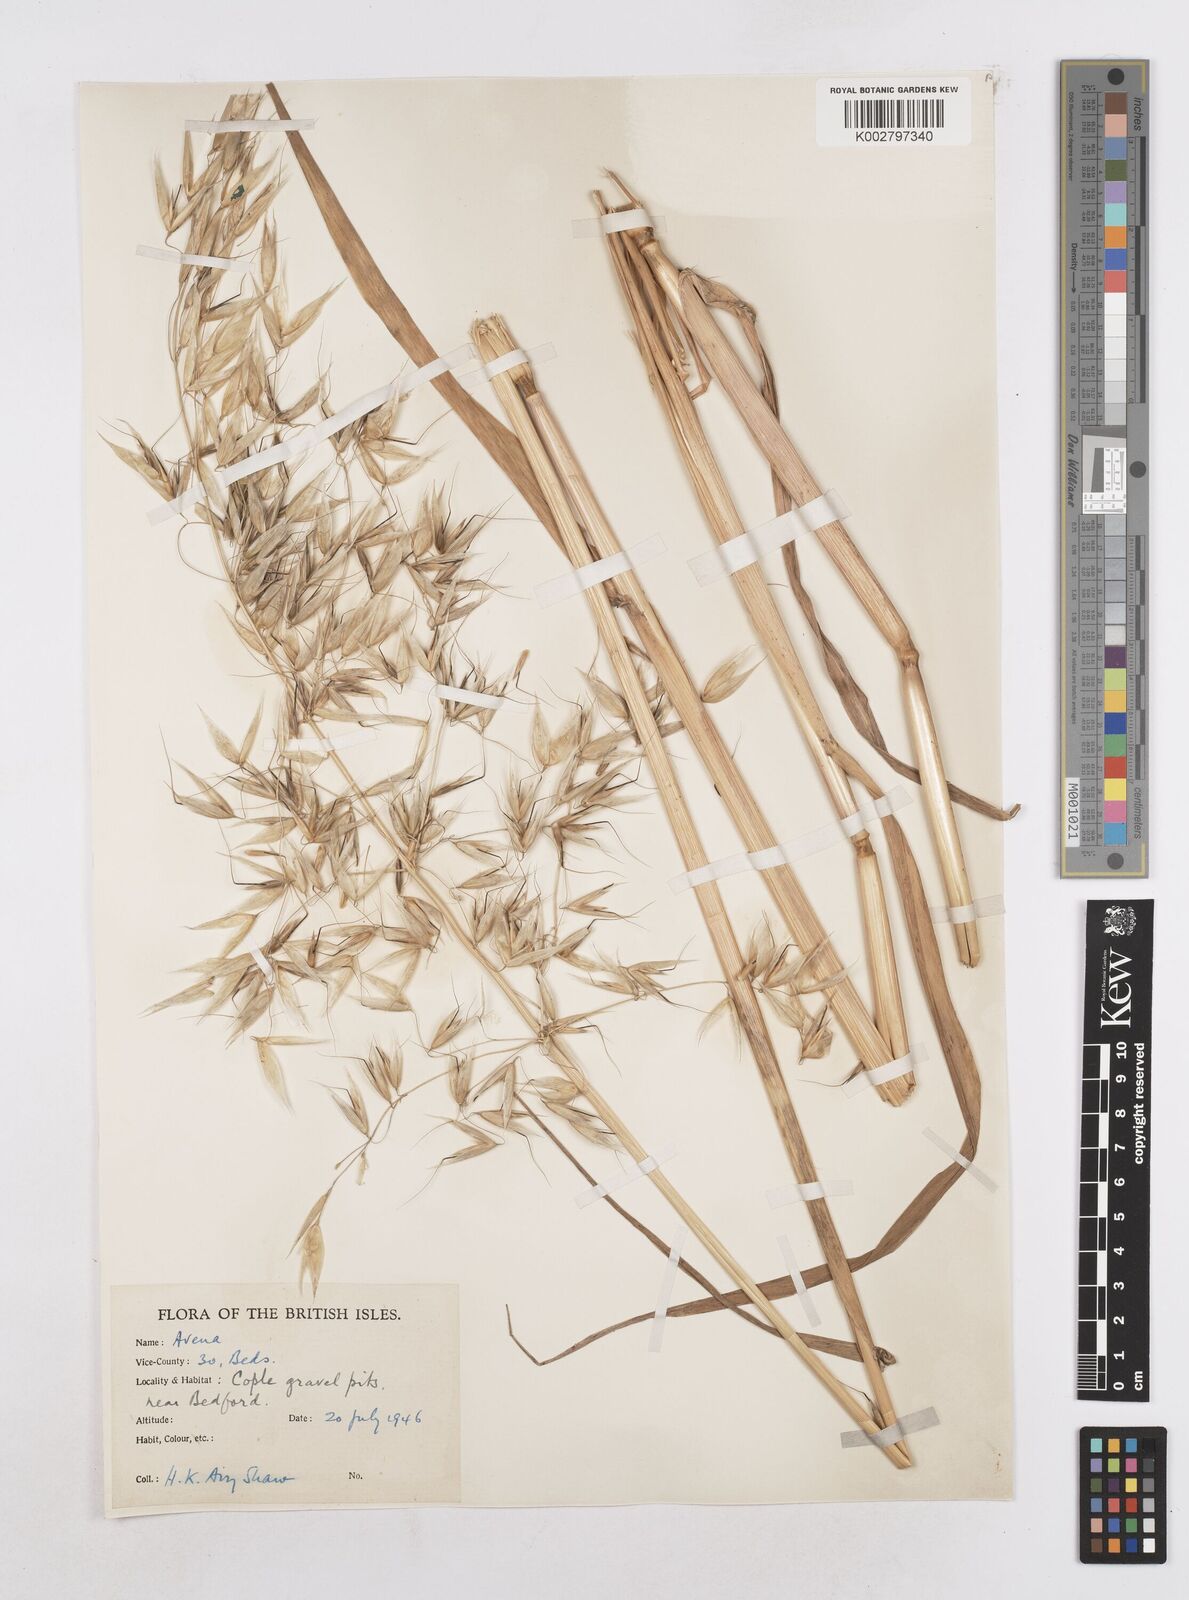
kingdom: Plantae
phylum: Tracheophyta
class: Liliopsida
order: Poales
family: Poaceae
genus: Avena
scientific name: Avena fatua
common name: Wild oat
